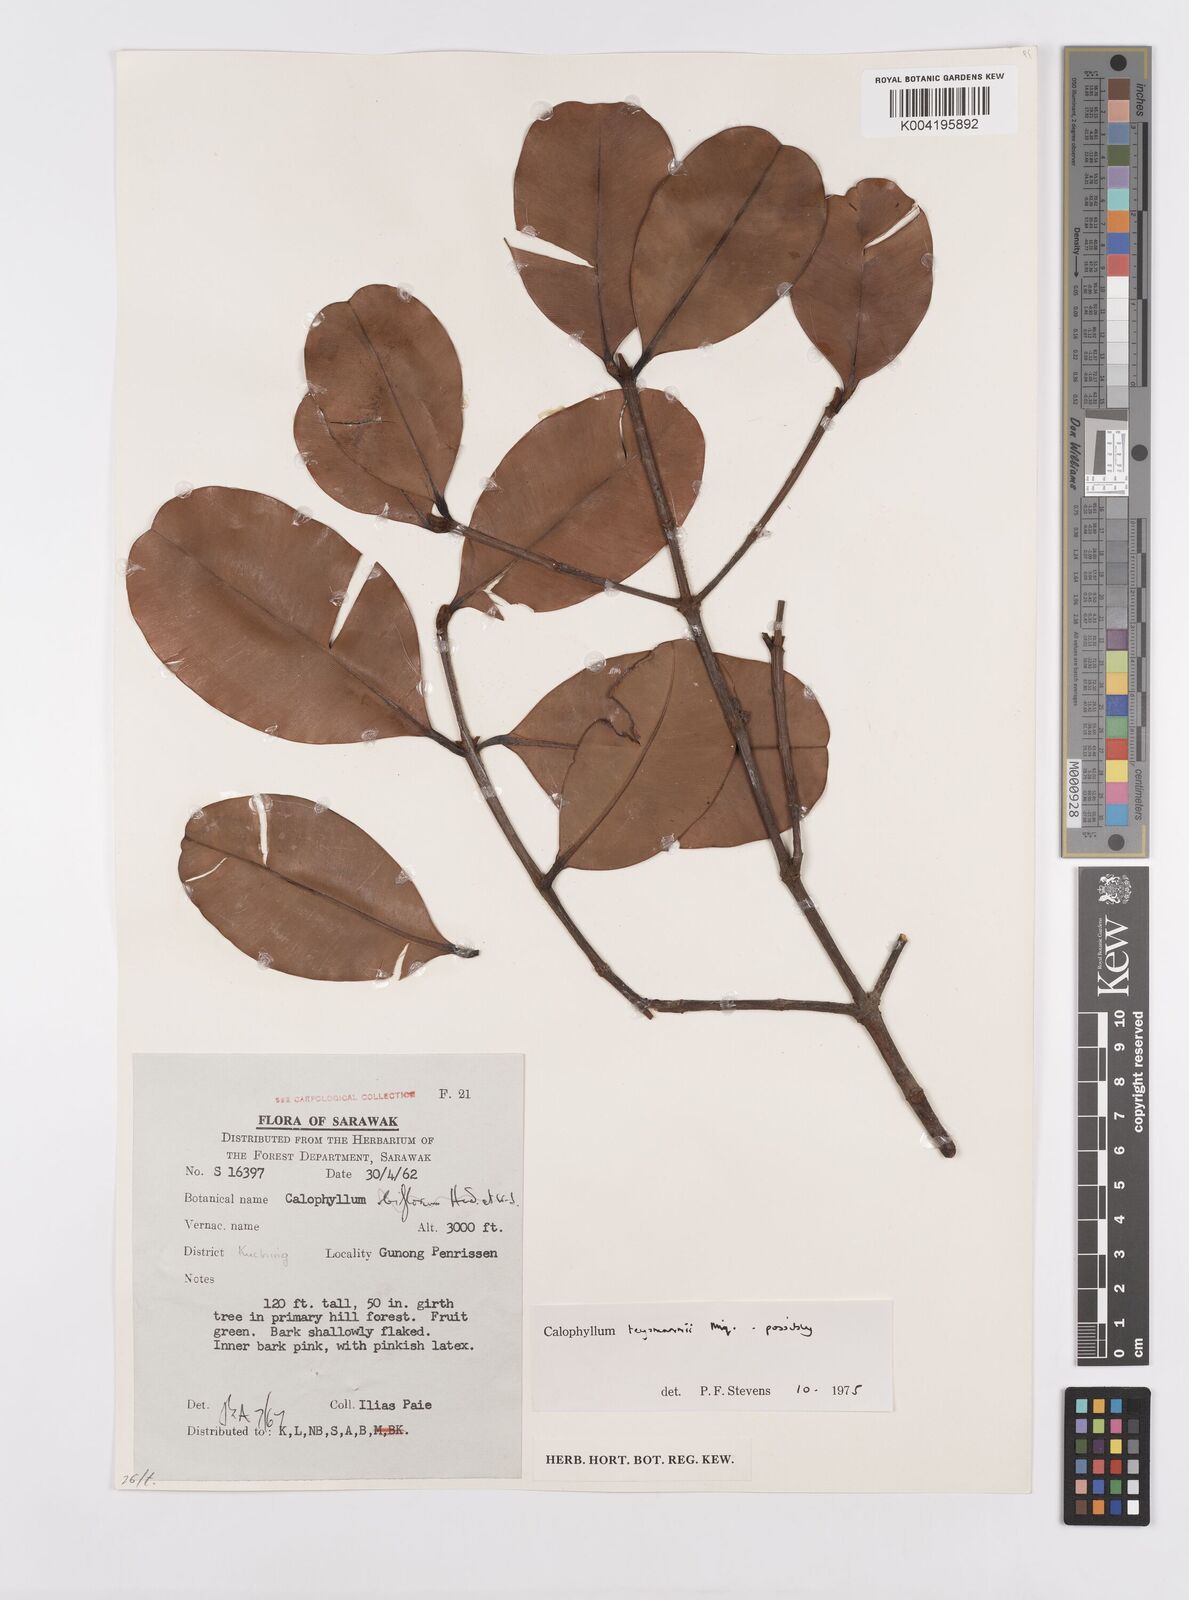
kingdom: Plantae
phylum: Tracheophyta
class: Magnoliopsida
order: Malpighiales
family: Calophyllaceae
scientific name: Calophyllaceae
